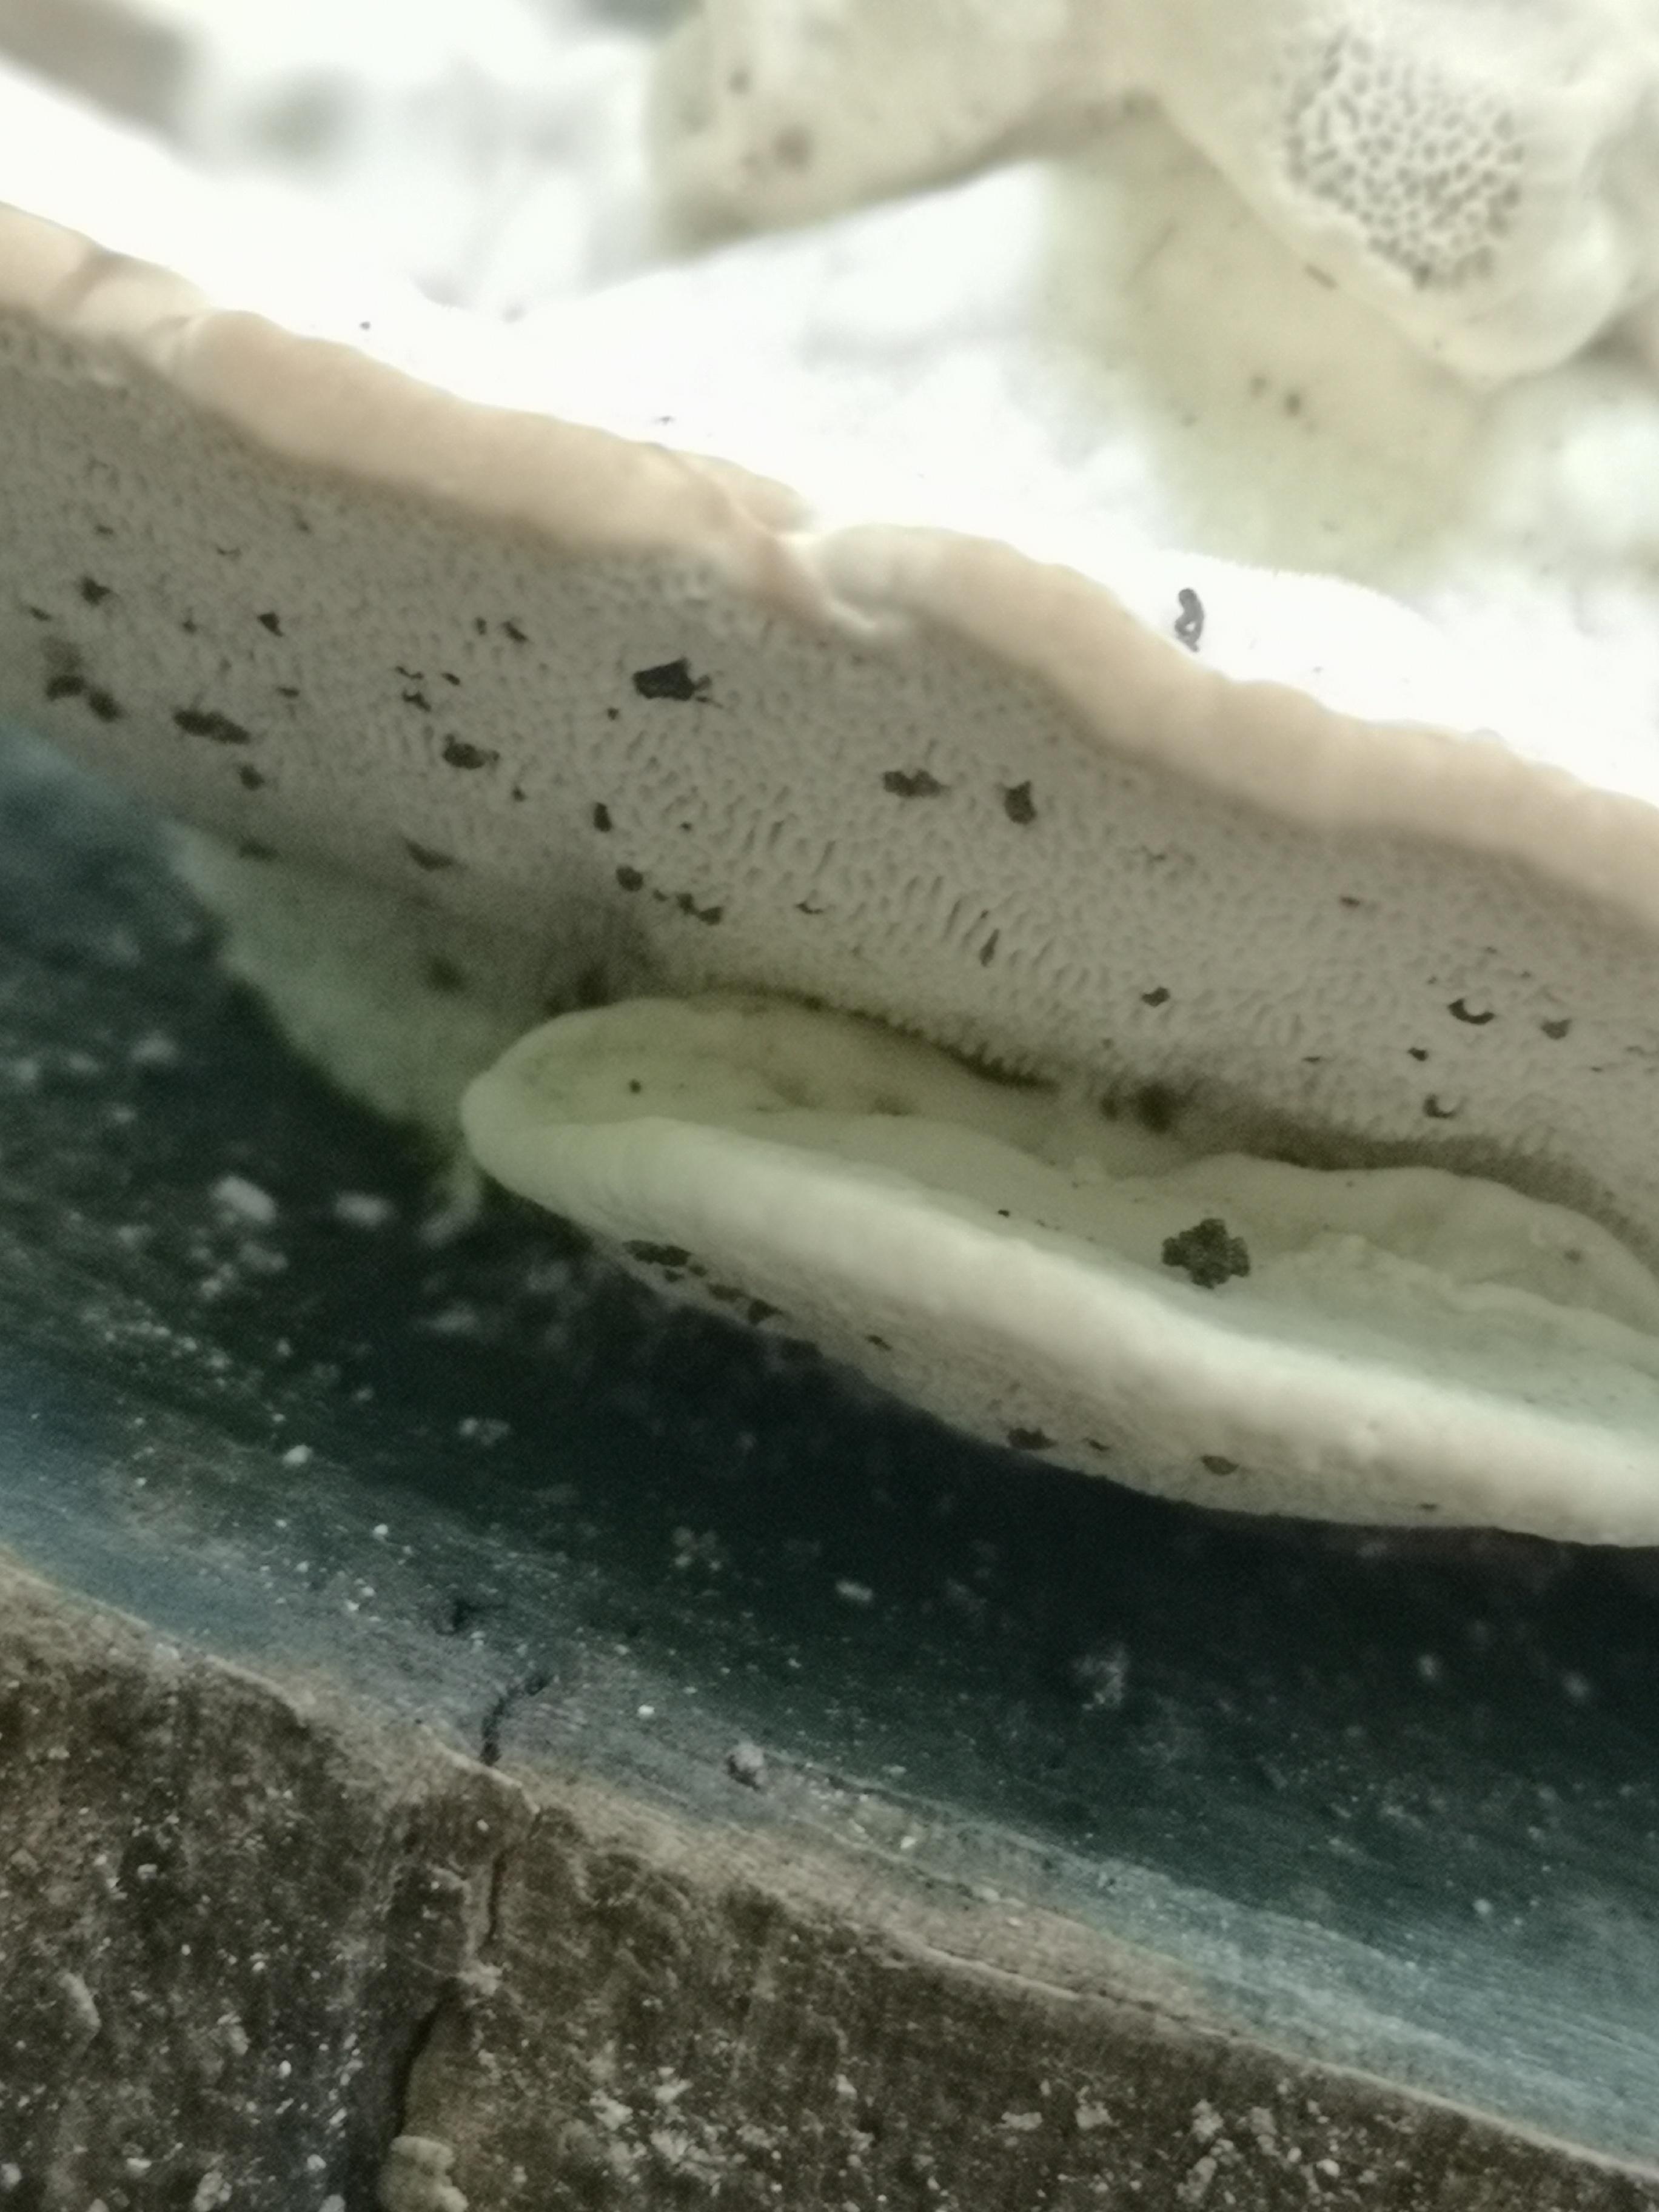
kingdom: Fungi
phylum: Basidiomycota
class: Agaricomycetes
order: Polyporales
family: Polyporaceae
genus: Trametes
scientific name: Trametes gibbosa
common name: puklet læderporesvamp
